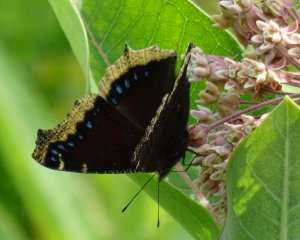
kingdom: Animalia
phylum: Arthropoda
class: Insecta
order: Lepidoptera
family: Nymphalidae
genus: Nymphalis
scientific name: Nymphalis antiopa
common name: Mourning Cloak
